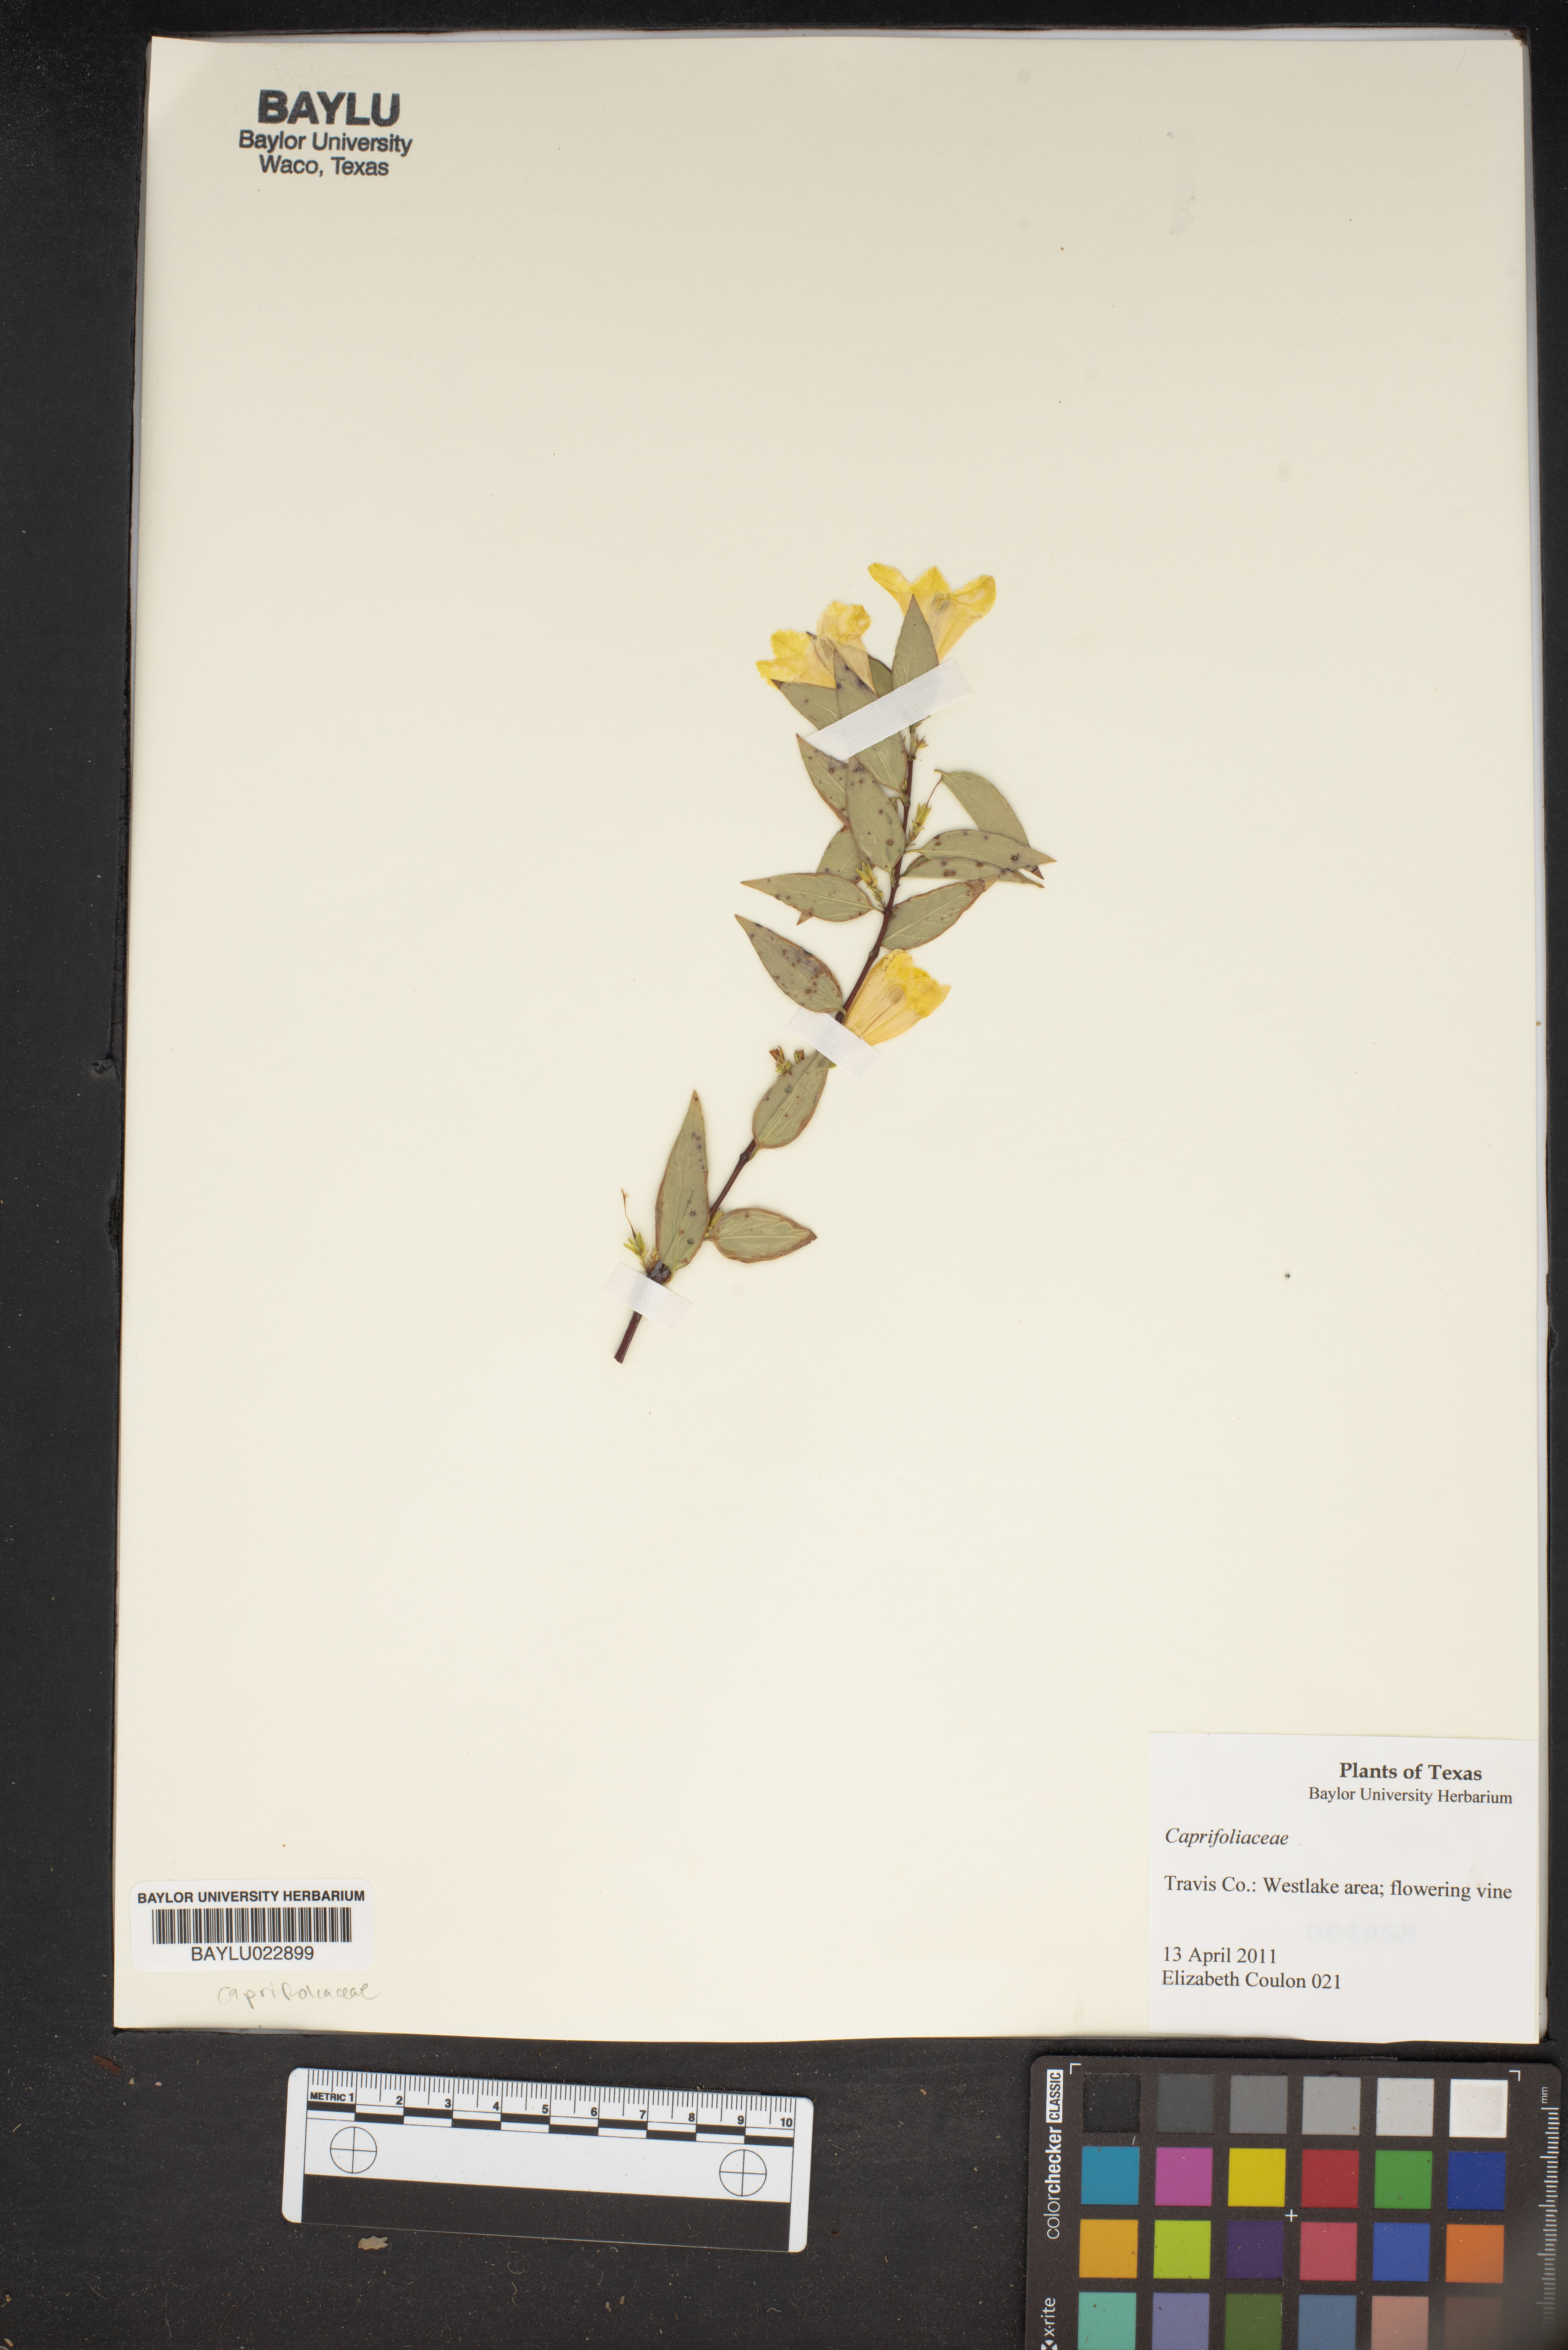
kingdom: Plantae
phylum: Tracheophyta
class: Magnoliopsida
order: Dipsacales
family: Caprifoliaceae
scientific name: Caprifoliaceae
